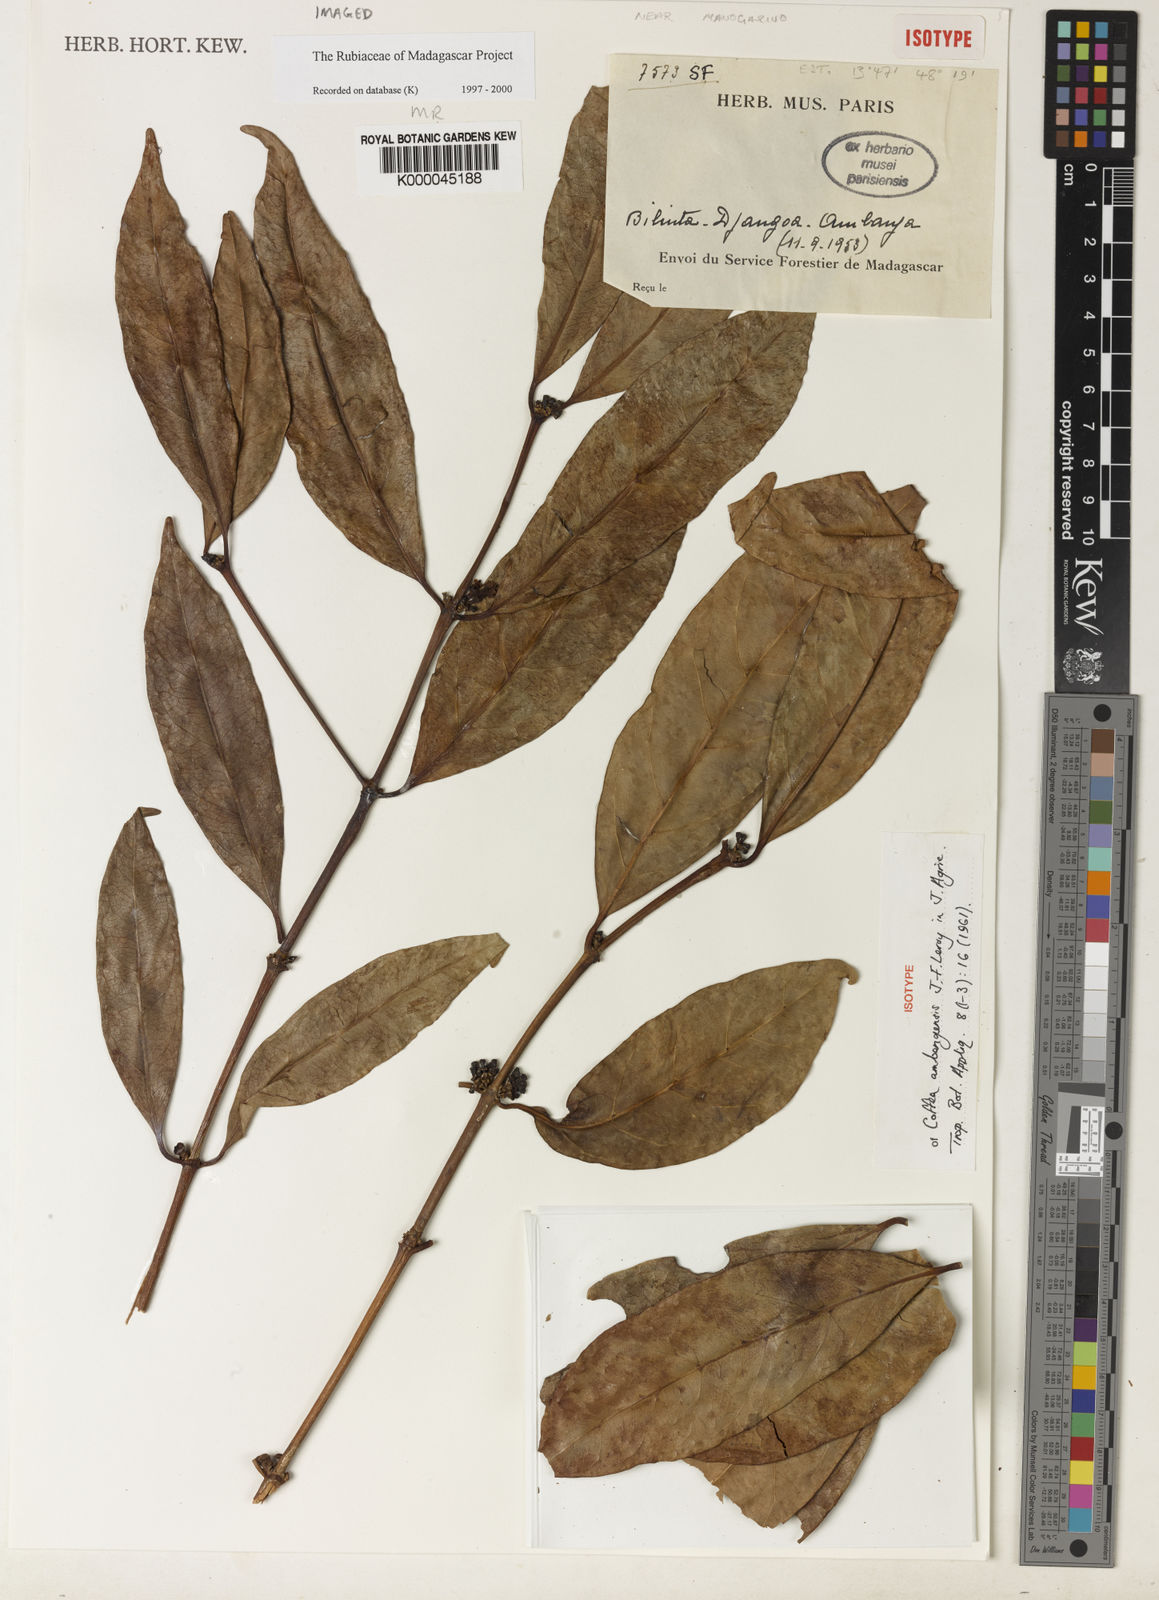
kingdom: Plantae
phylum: Tracheophyta
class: Magnoliopsida
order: Gentianales
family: Rubiaceae
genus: Coffea
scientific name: Coffea ambanjensis
